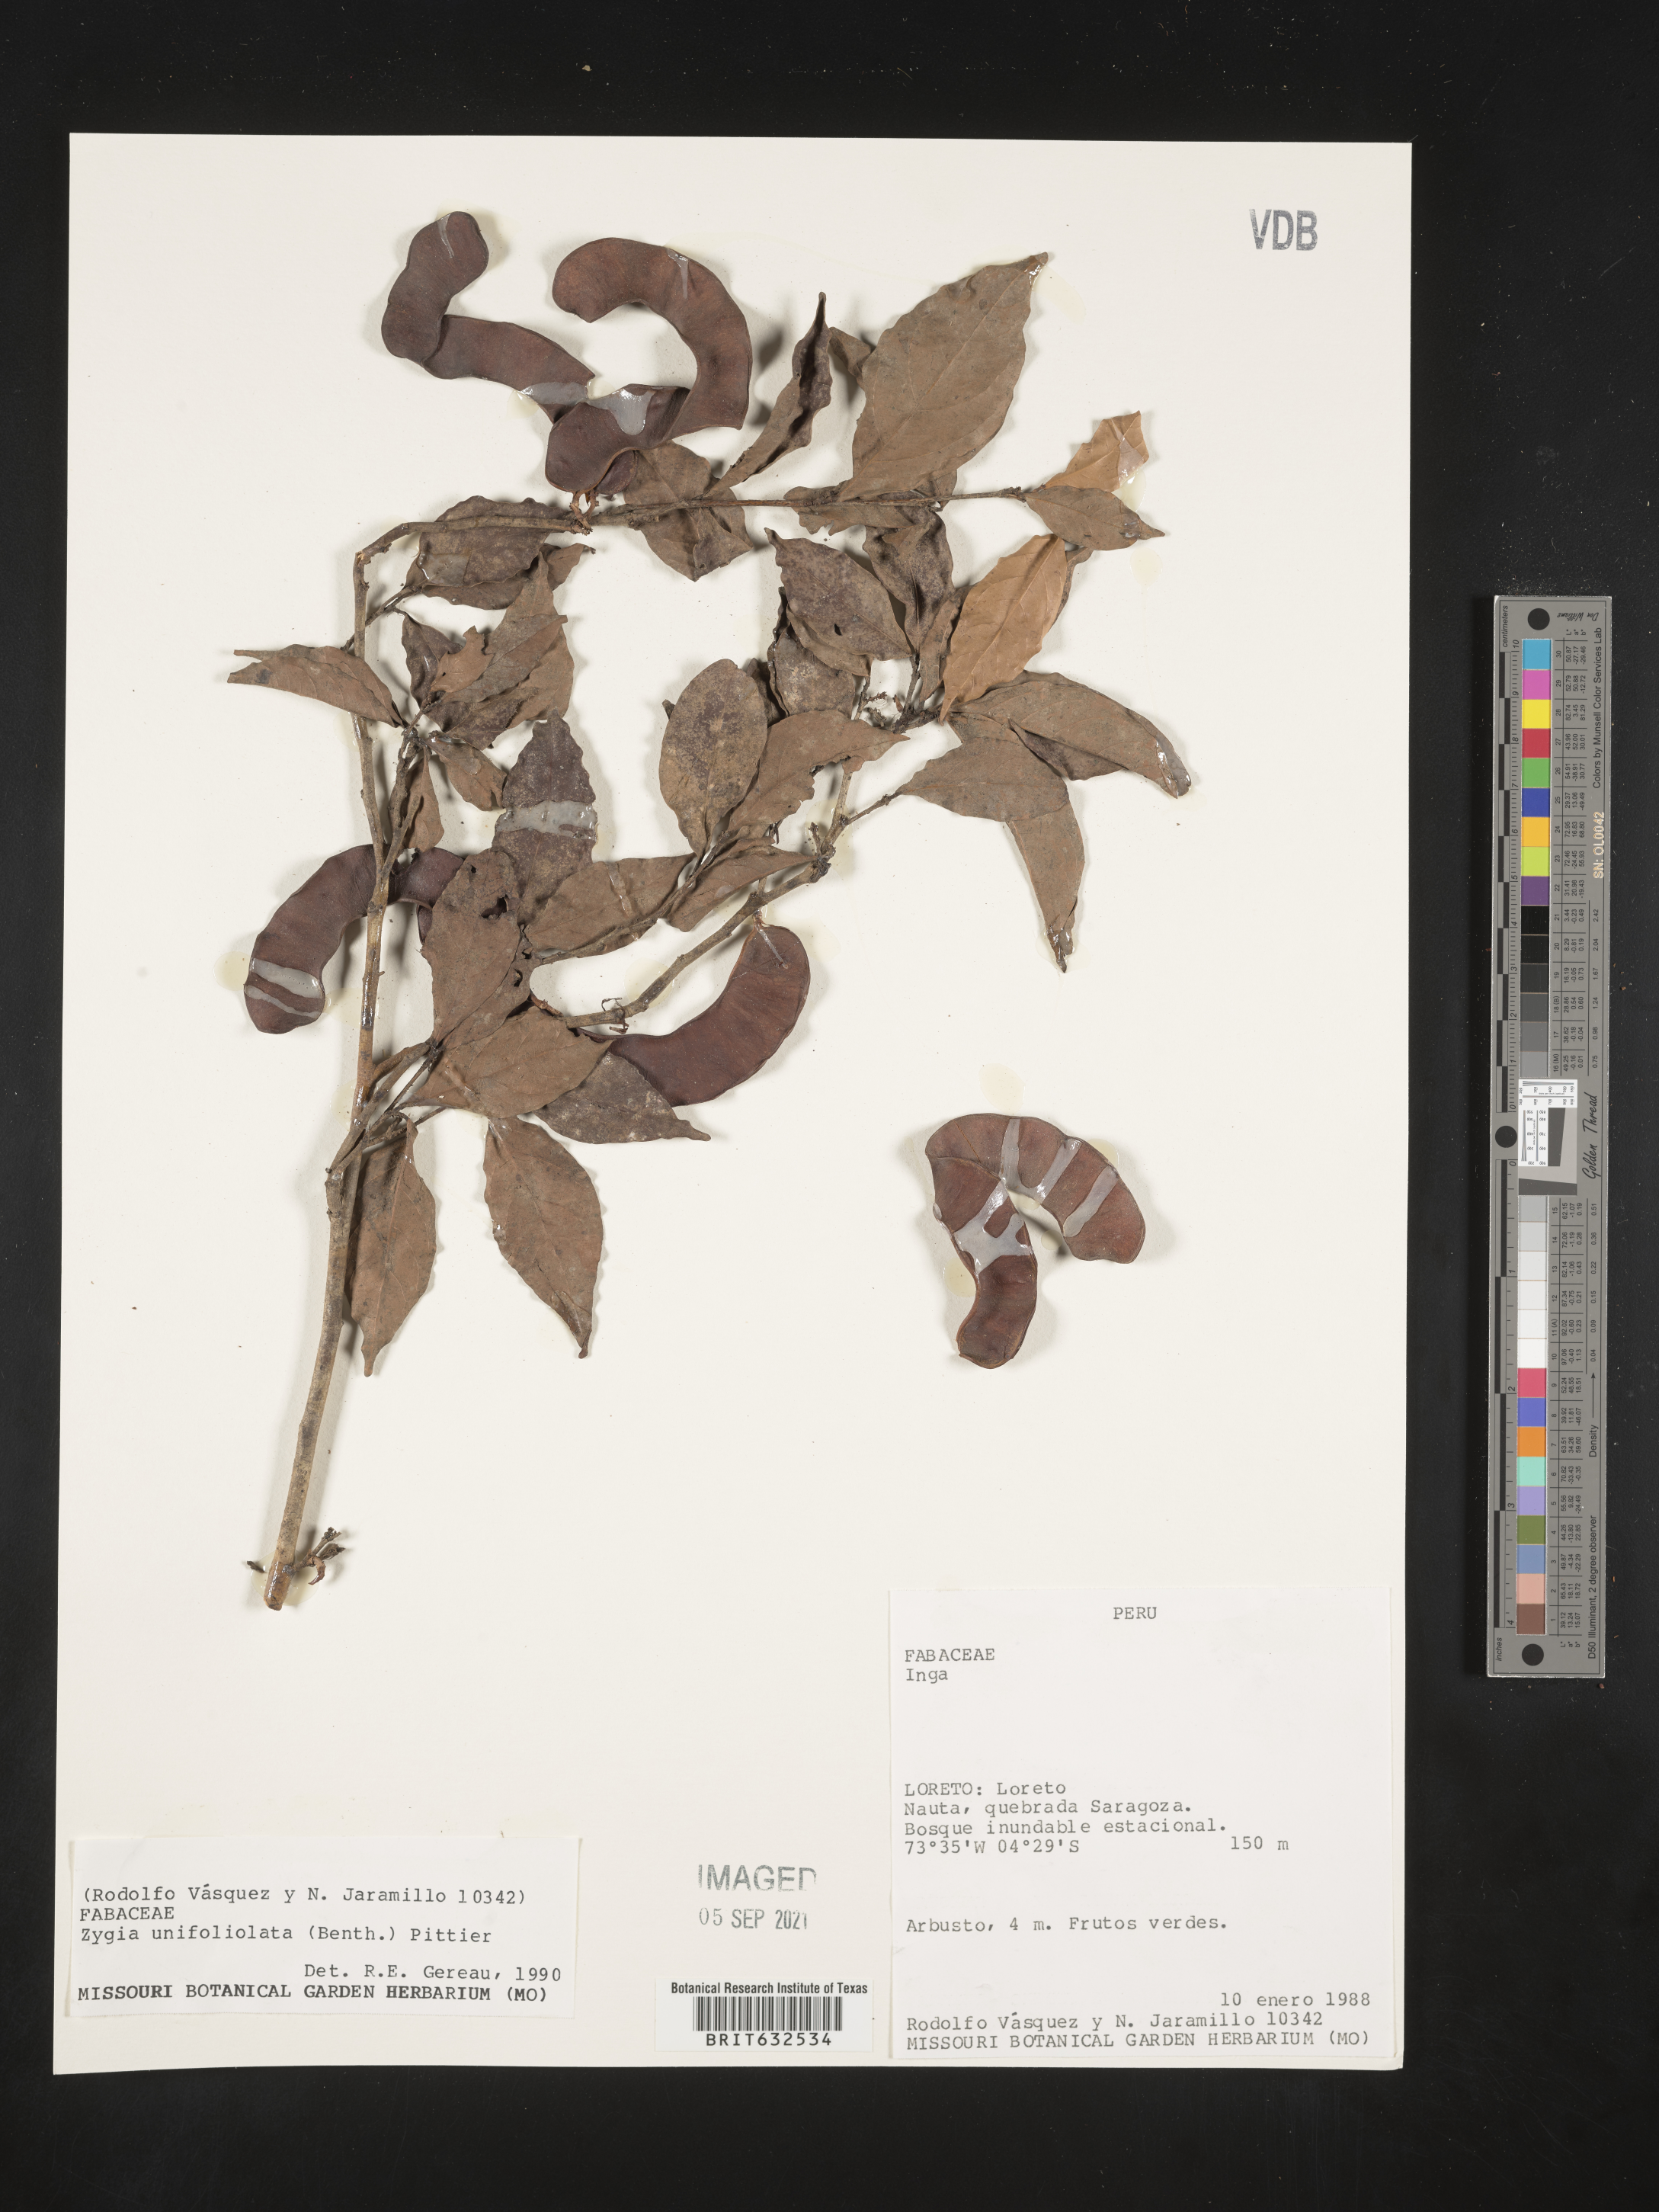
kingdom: Plantae
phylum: Tracheophyta
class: Magnoliopsida
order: Fabales
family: Fabaceae
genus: Zygia
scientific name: Zygia
